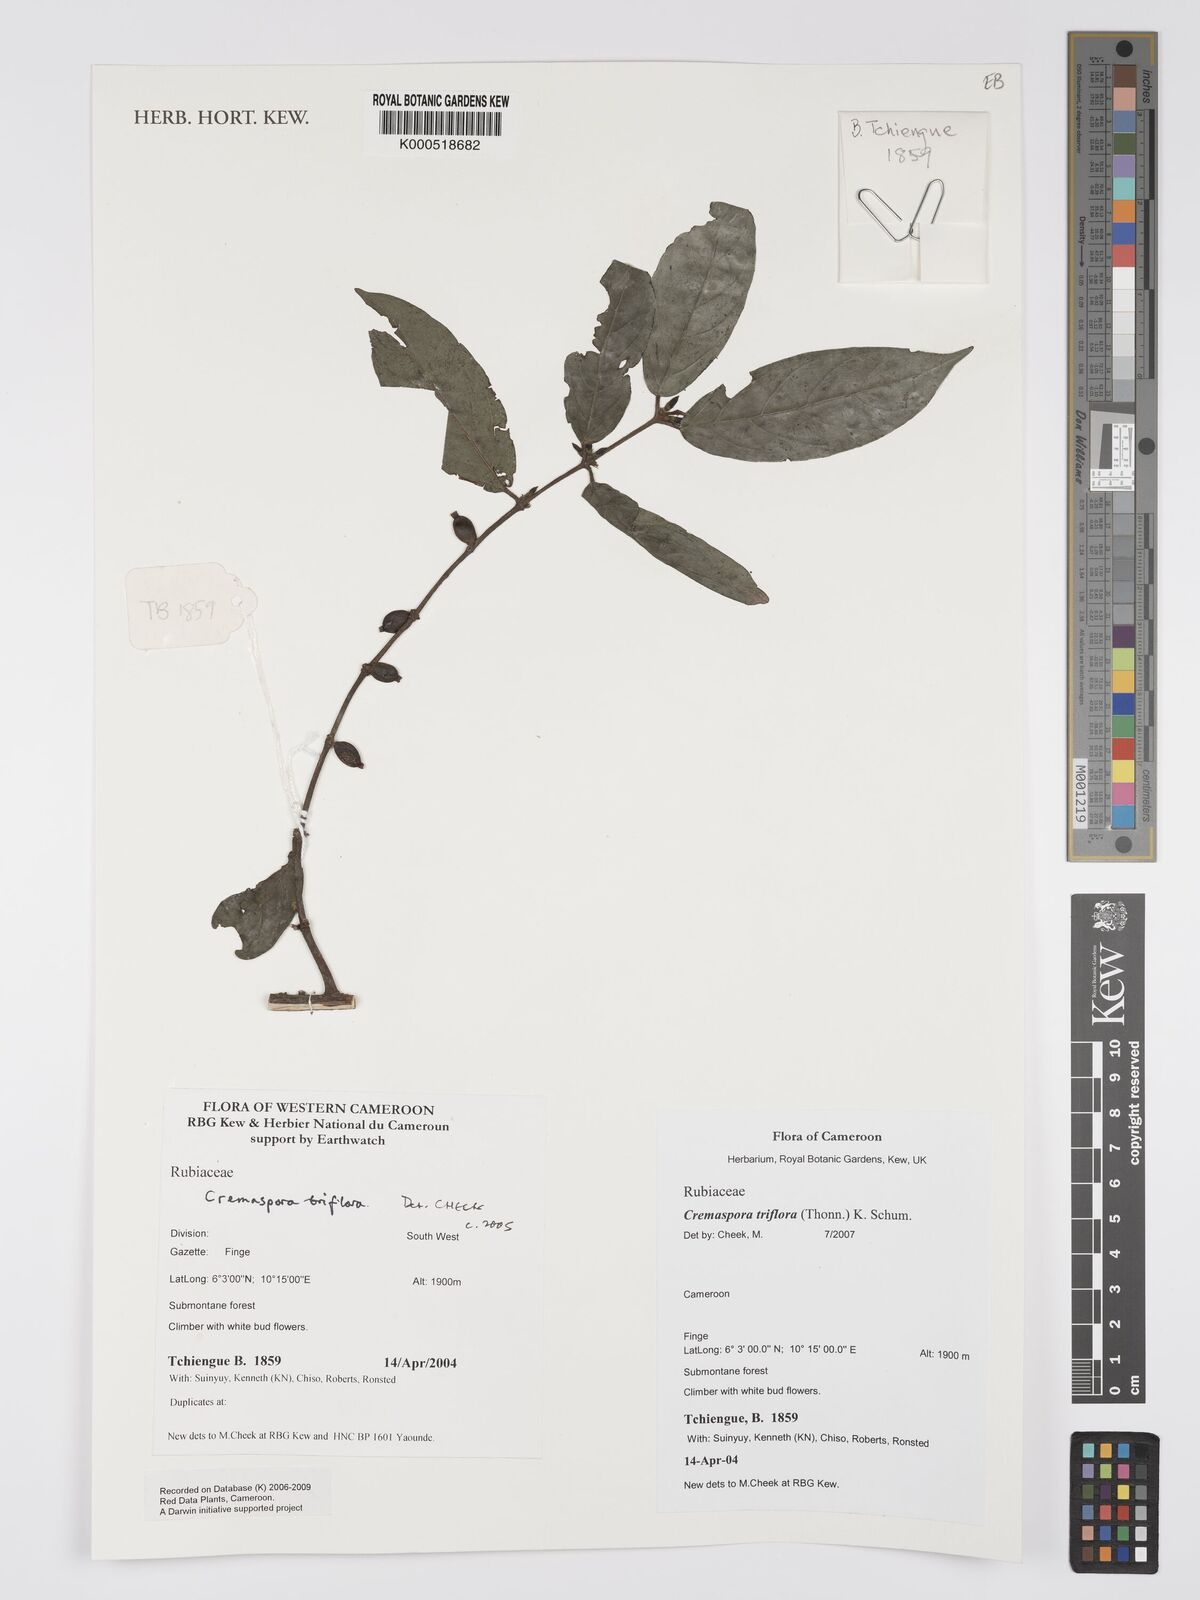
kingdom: Plantae
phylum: Tracheophyta
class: Magnoliopsida
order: Gentianales
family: Rubiaceae
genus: Cremaspora
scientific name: Cremaspora triflora
